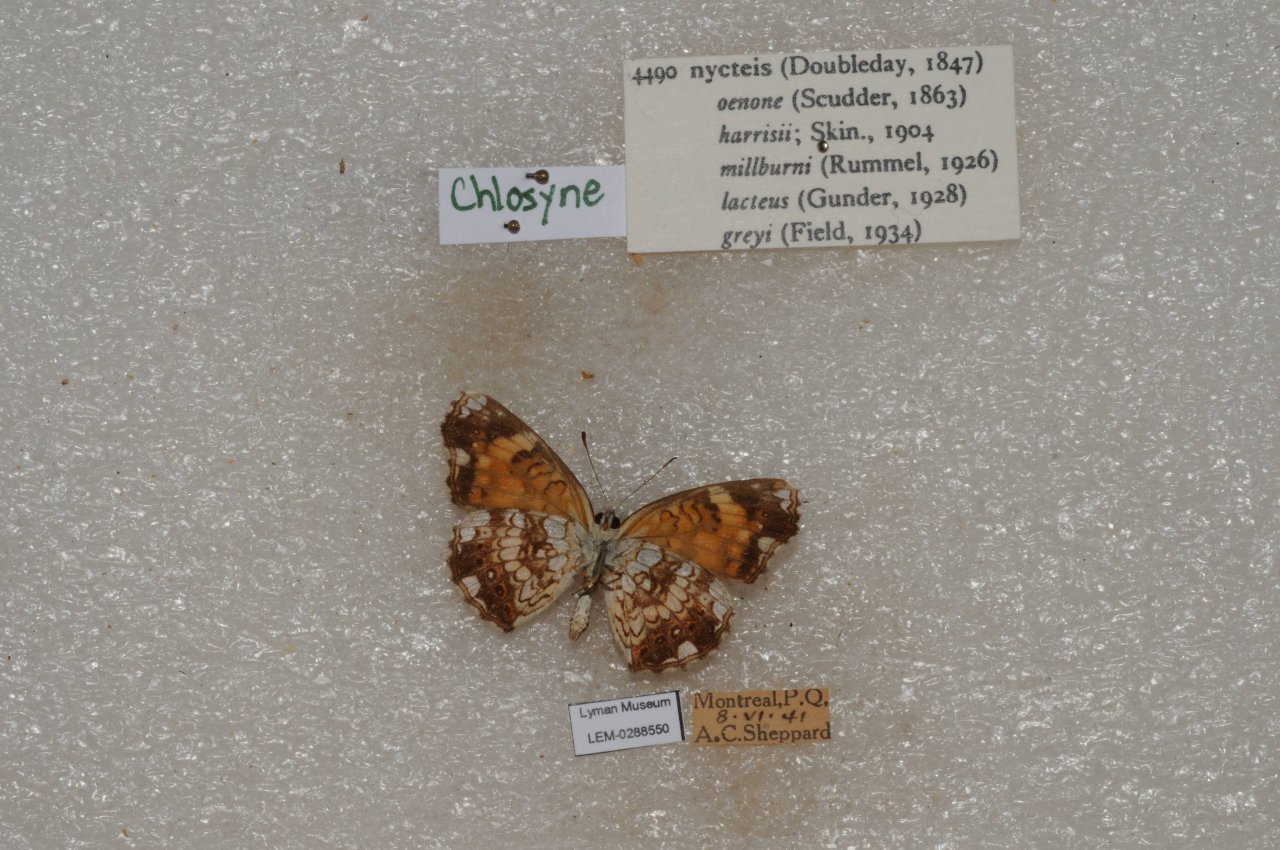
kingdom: Animalia
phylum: Arthropoda
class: Insecta
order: Lepidoptera
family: Nymphalidae
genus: Chlosyne
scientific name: Chlosyne nycteis
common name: Silvery Checkerspot
